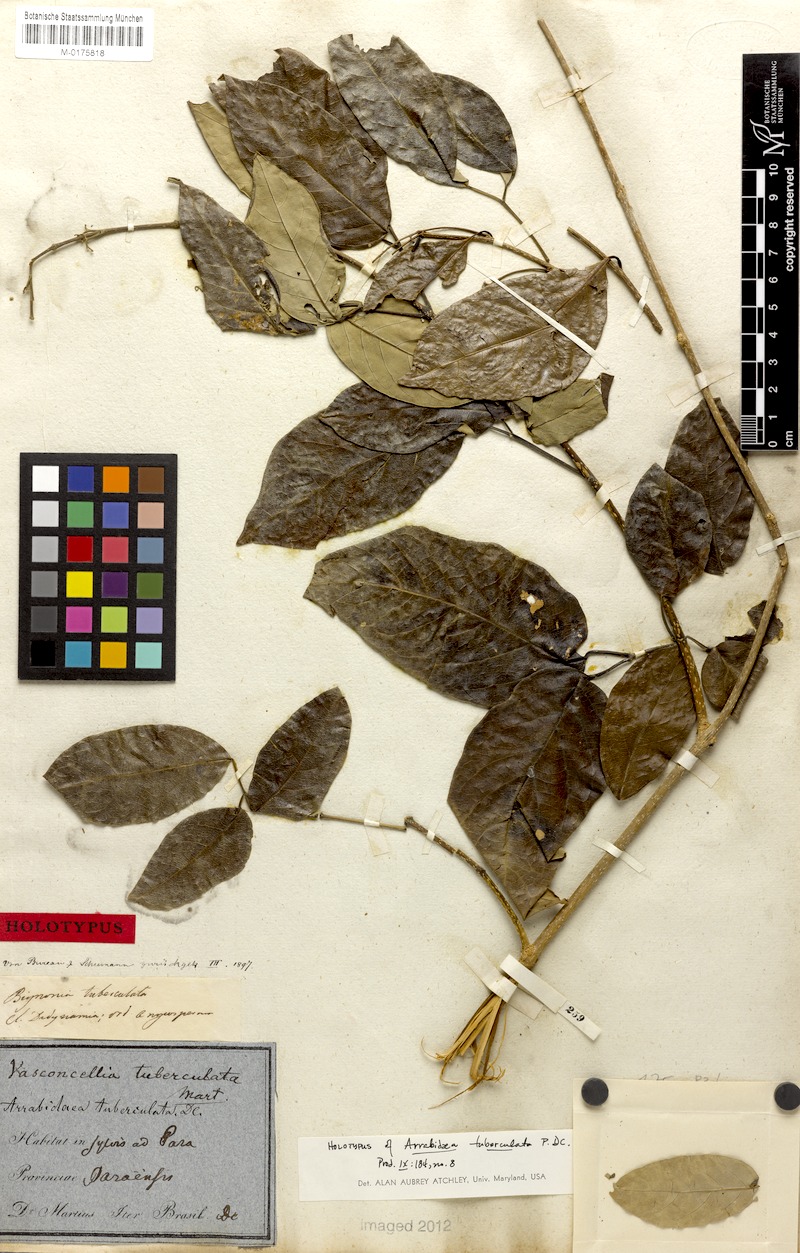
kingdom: Plantae
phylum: Tracheophyta
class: Magnoliopsida
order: Lamiales
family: Bignoniaceae
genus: Fridericia
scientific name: Fridericia pilulifera
